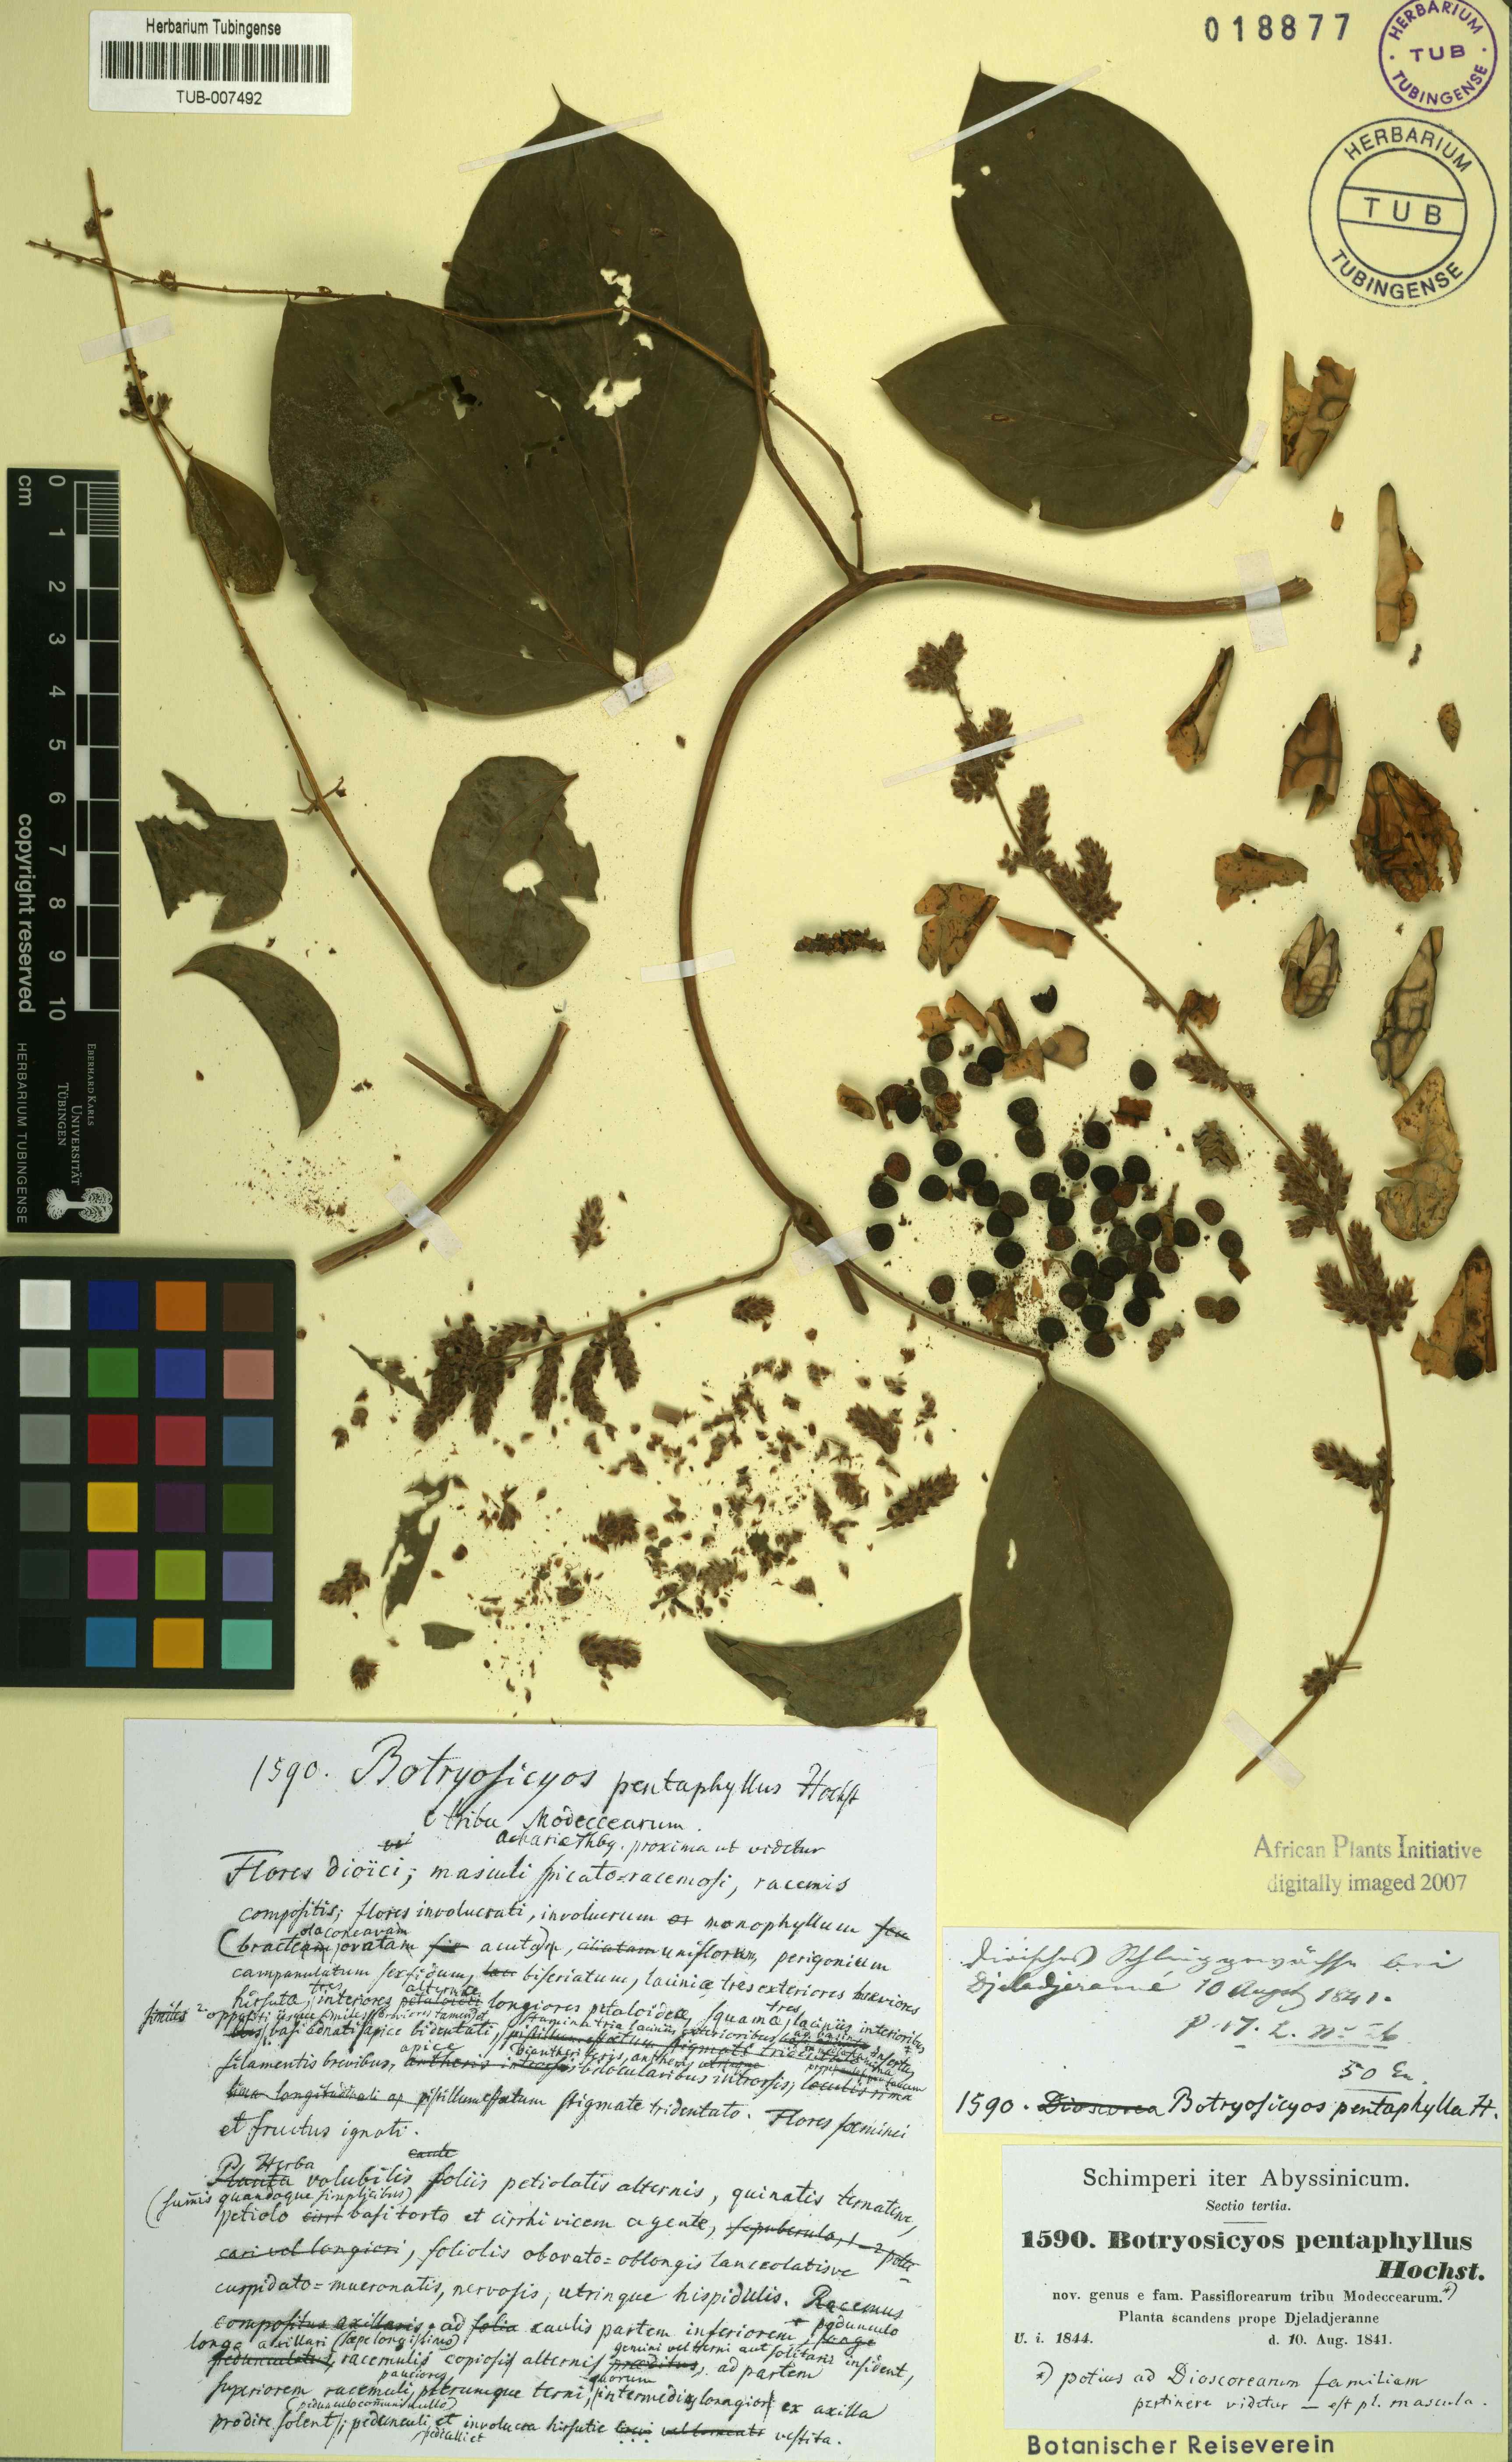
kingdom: Plantae
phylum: Tracheophyta
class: Liliopsida
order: Dioscoreales
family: Dioscoreaceae
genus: Dioscorea
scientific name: Dioscorea pentaphylla
